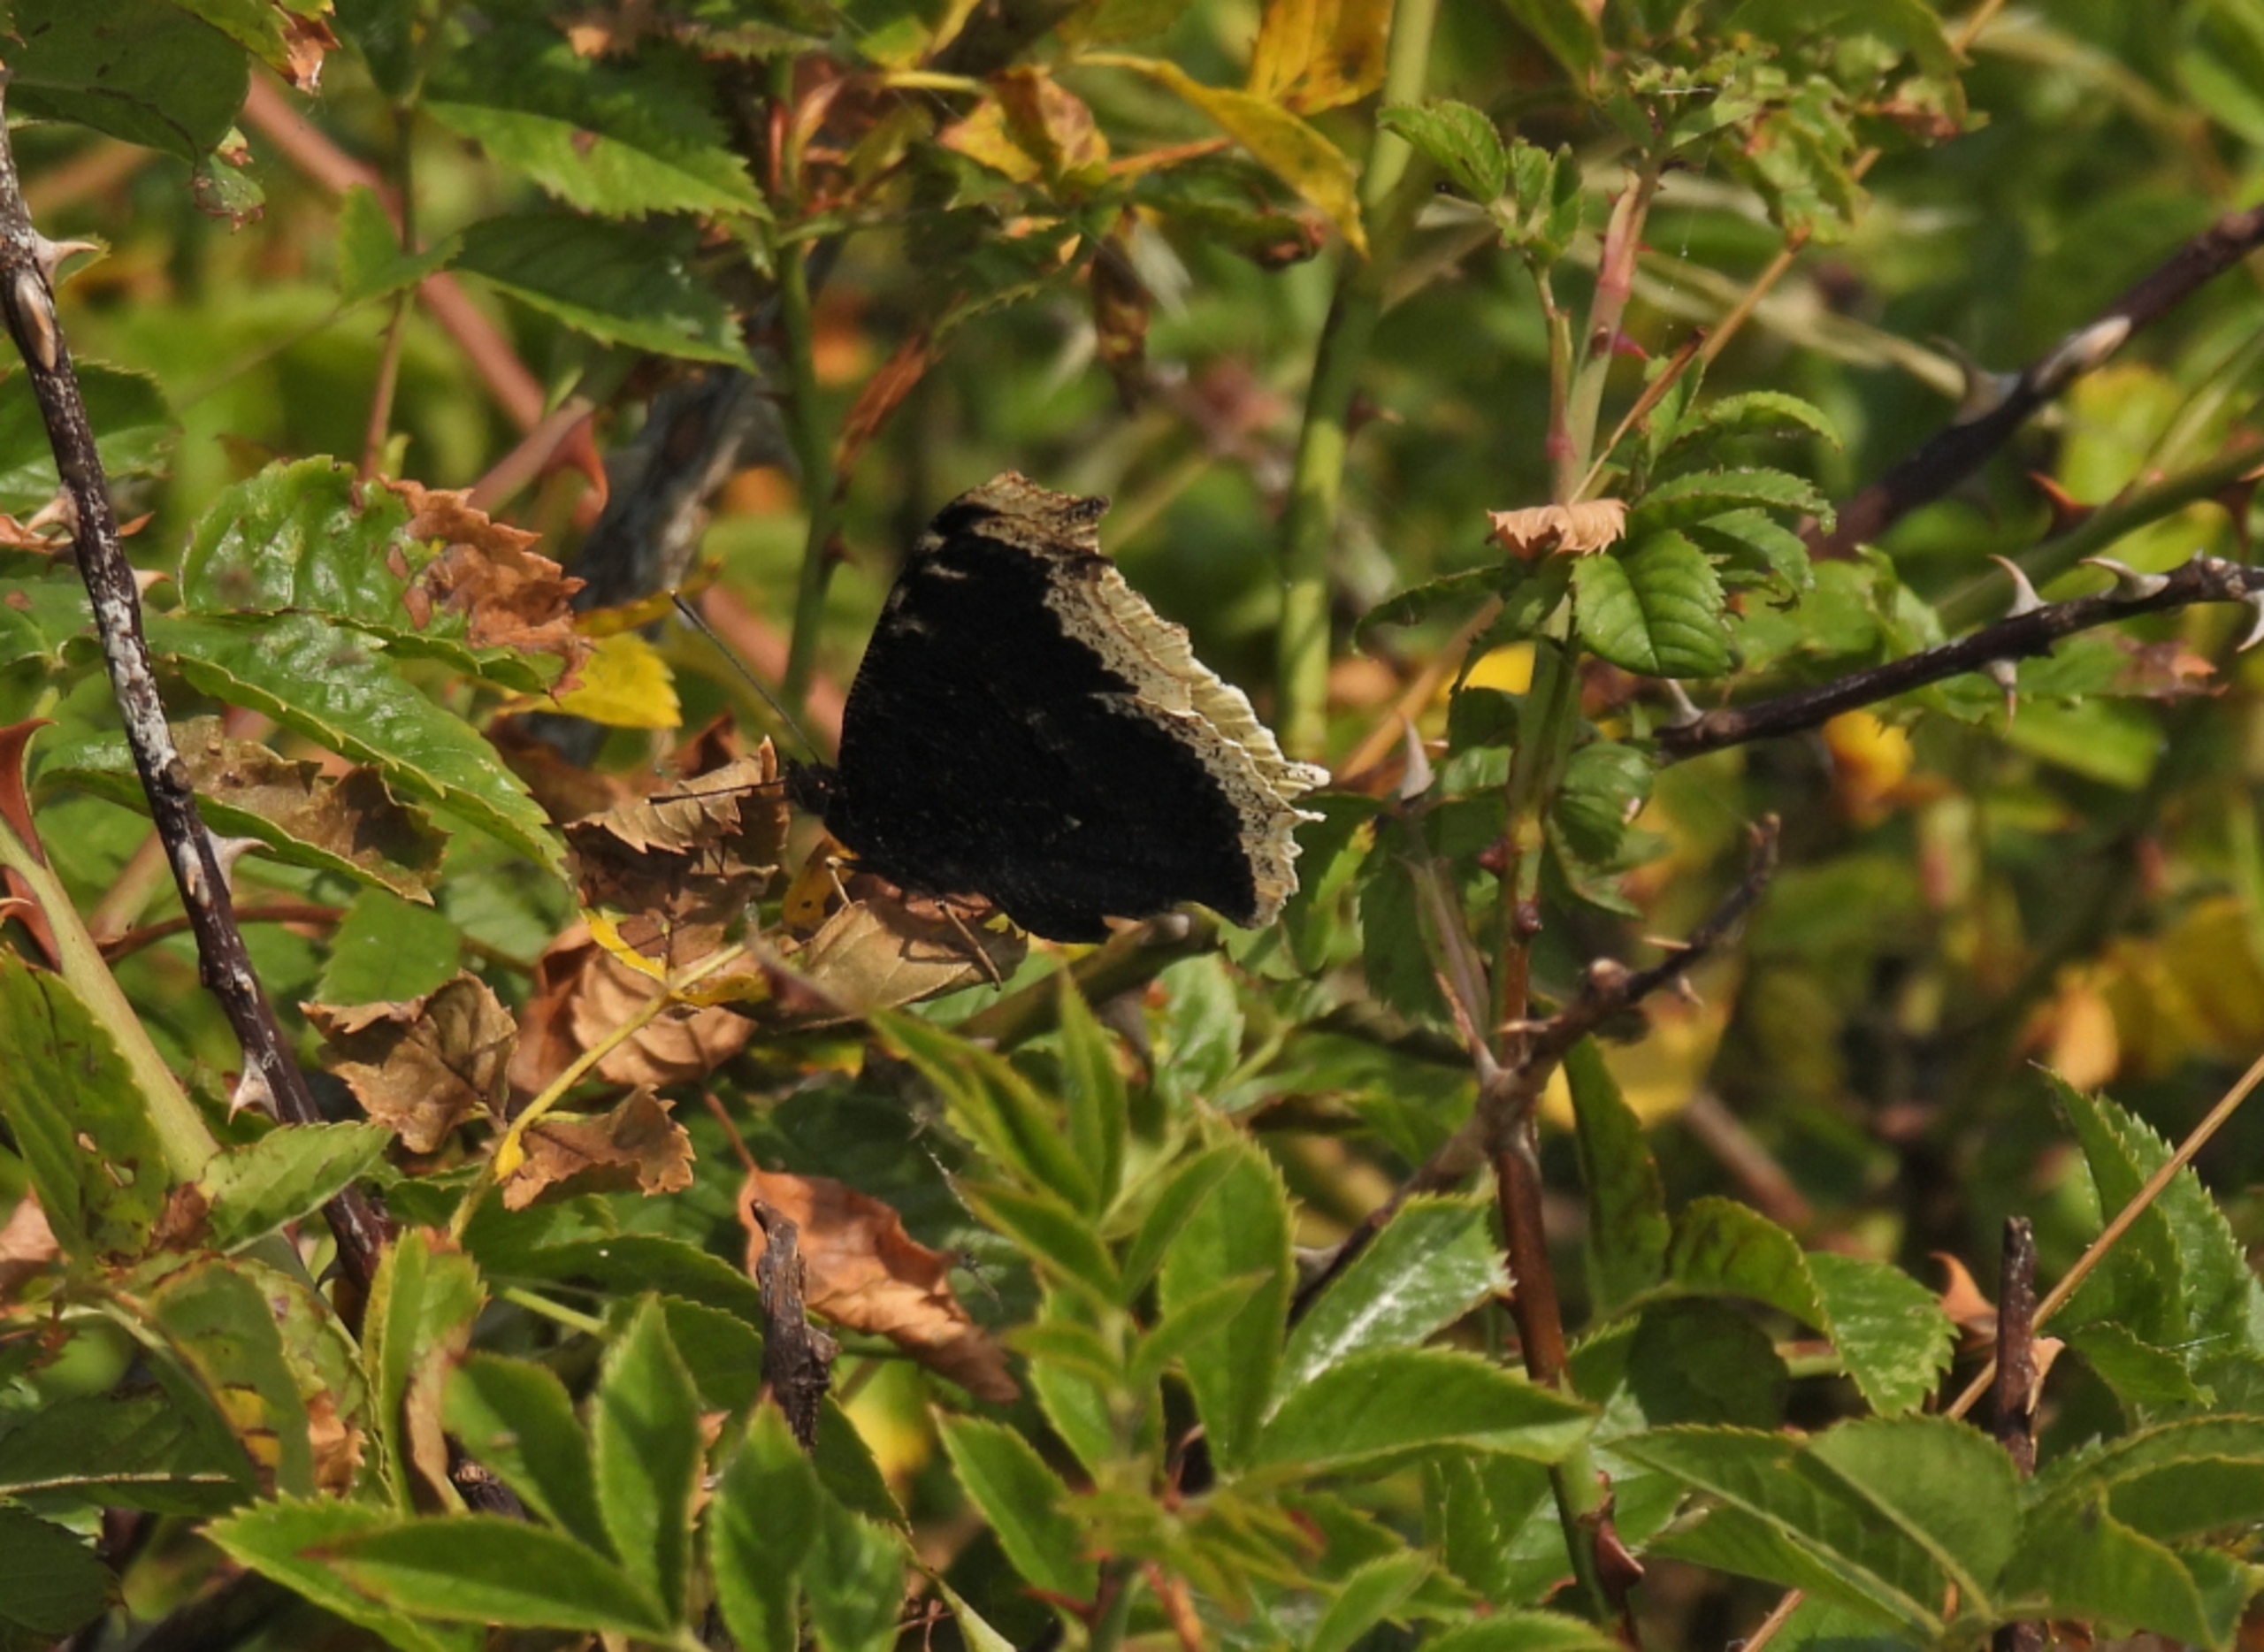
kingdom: Animalia
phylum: Arthropoda
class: Insecta
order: Lepidoptera
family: Nymphalidae
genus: Nymphalis
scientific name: Nymphalis antiopa
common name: Sørgekåbe
